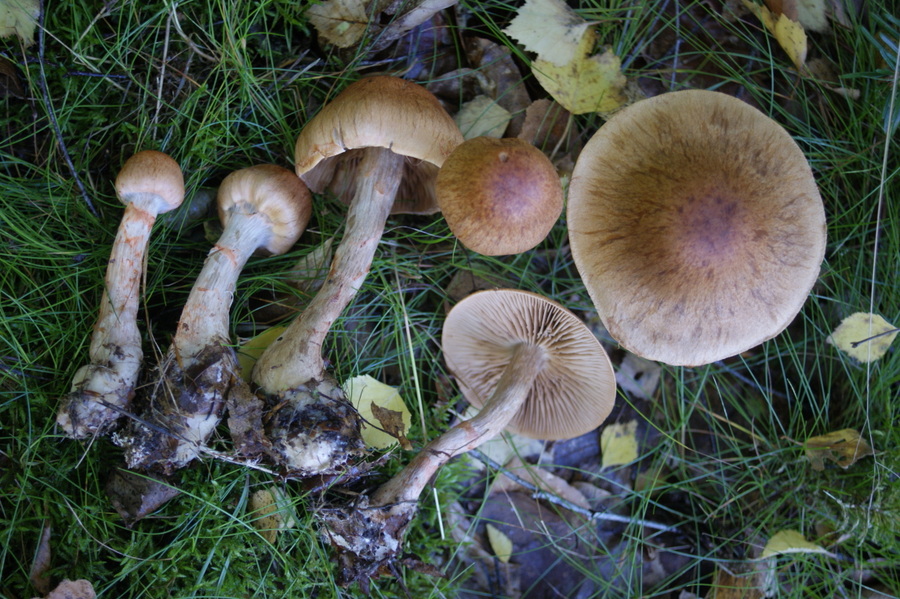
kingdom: Fungi
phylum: Basidiomycota
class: Agaricomycetes
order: Agaricales
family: Cortinariaceae
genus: Cortinarius
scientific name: Cortinarius armillatus
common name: cinnoberbæltet slørhat
